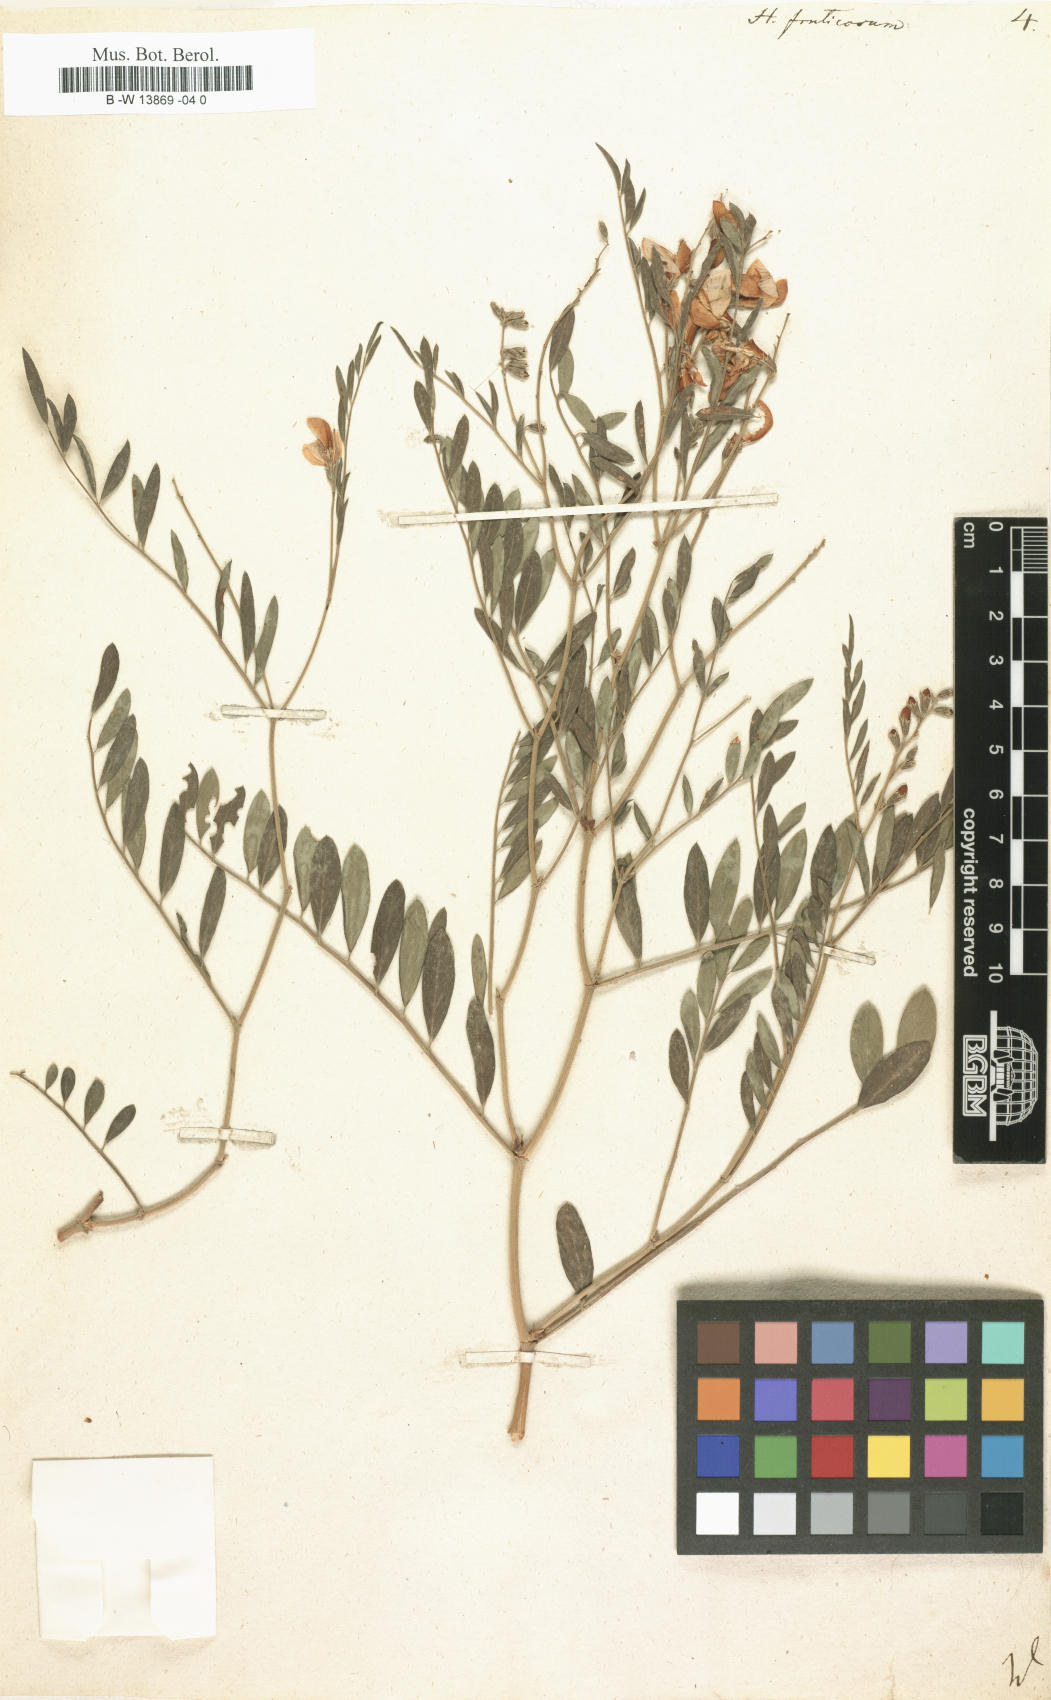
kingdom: Plantae
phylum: Tracheophyta
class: Magnoliopsida
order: Fabales
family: Fabaceae
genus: Corethrodendron
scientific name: Corethrodendron fruticosum
